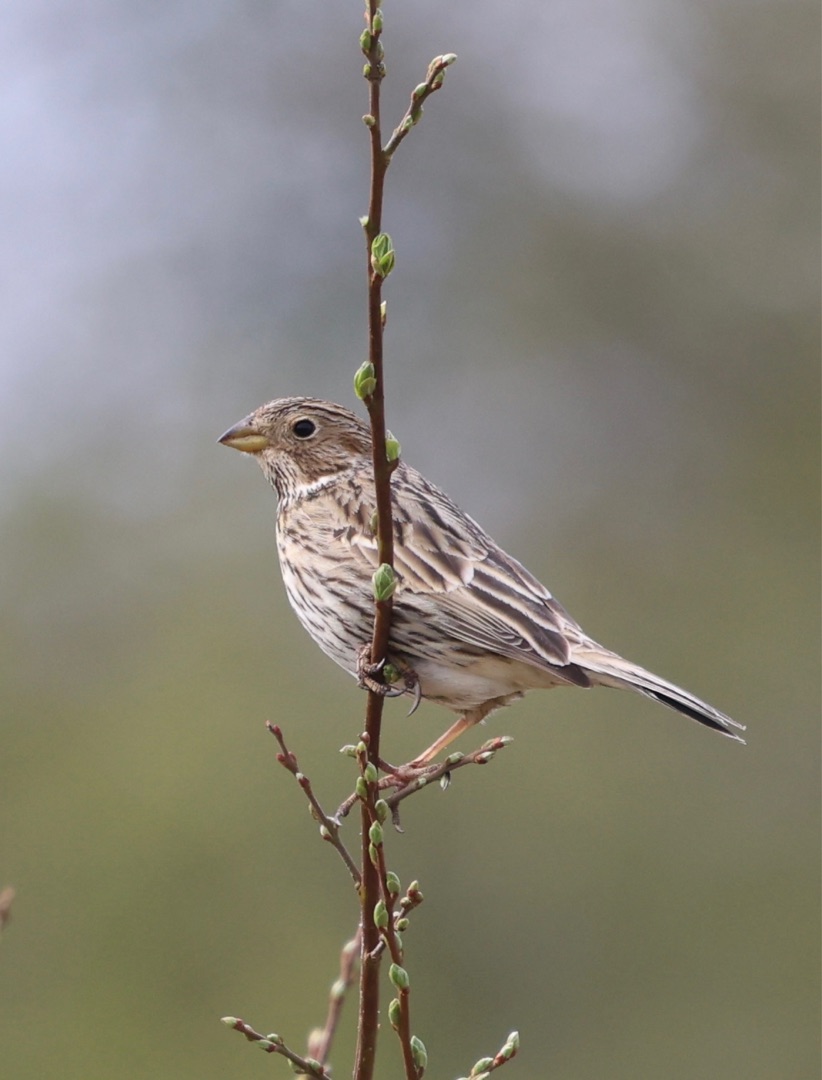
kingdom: Animalia
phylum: Chordata
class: Aves
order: Passeriformes
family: Emberizidae
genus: Emberiza
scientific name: Emberiza calandra
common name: Bomlærke
